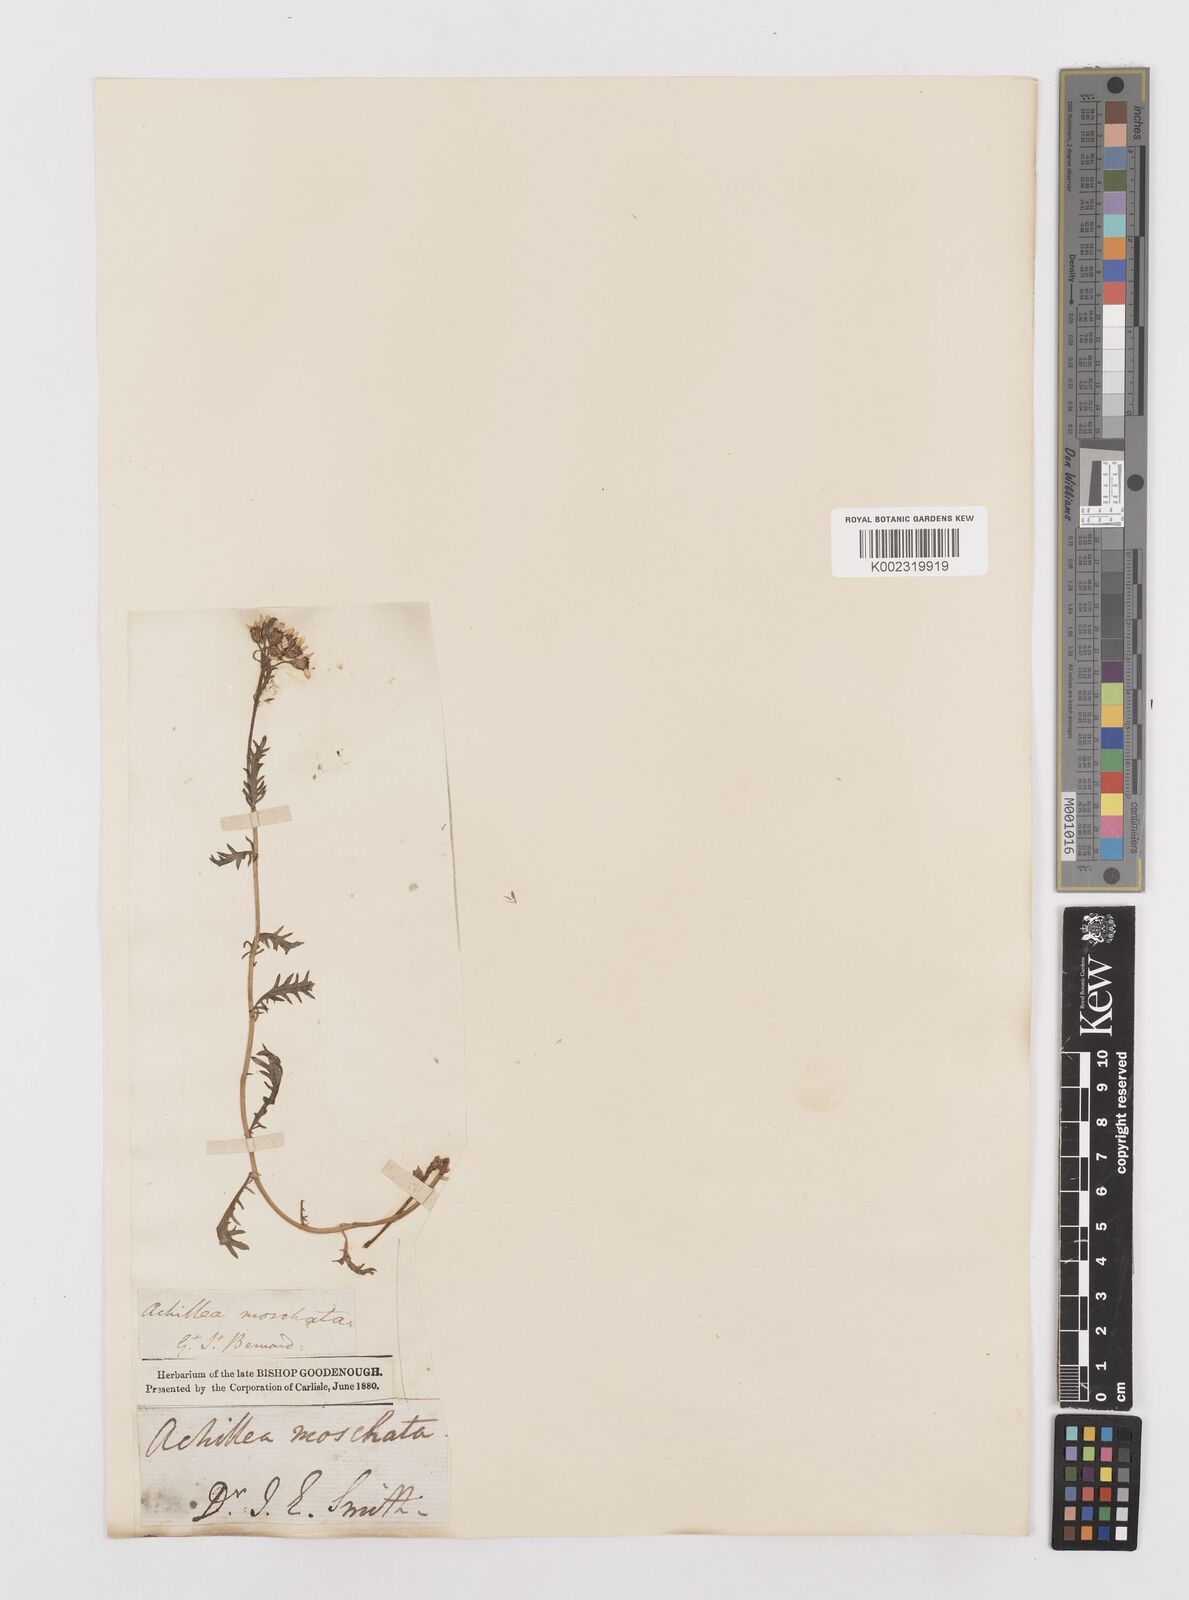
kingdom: Plantae
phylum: Tracheophyta
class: Magnoliopsida
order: Asterales
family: Asteraceae
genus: Achillea
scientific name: Achillea erba-rotta
